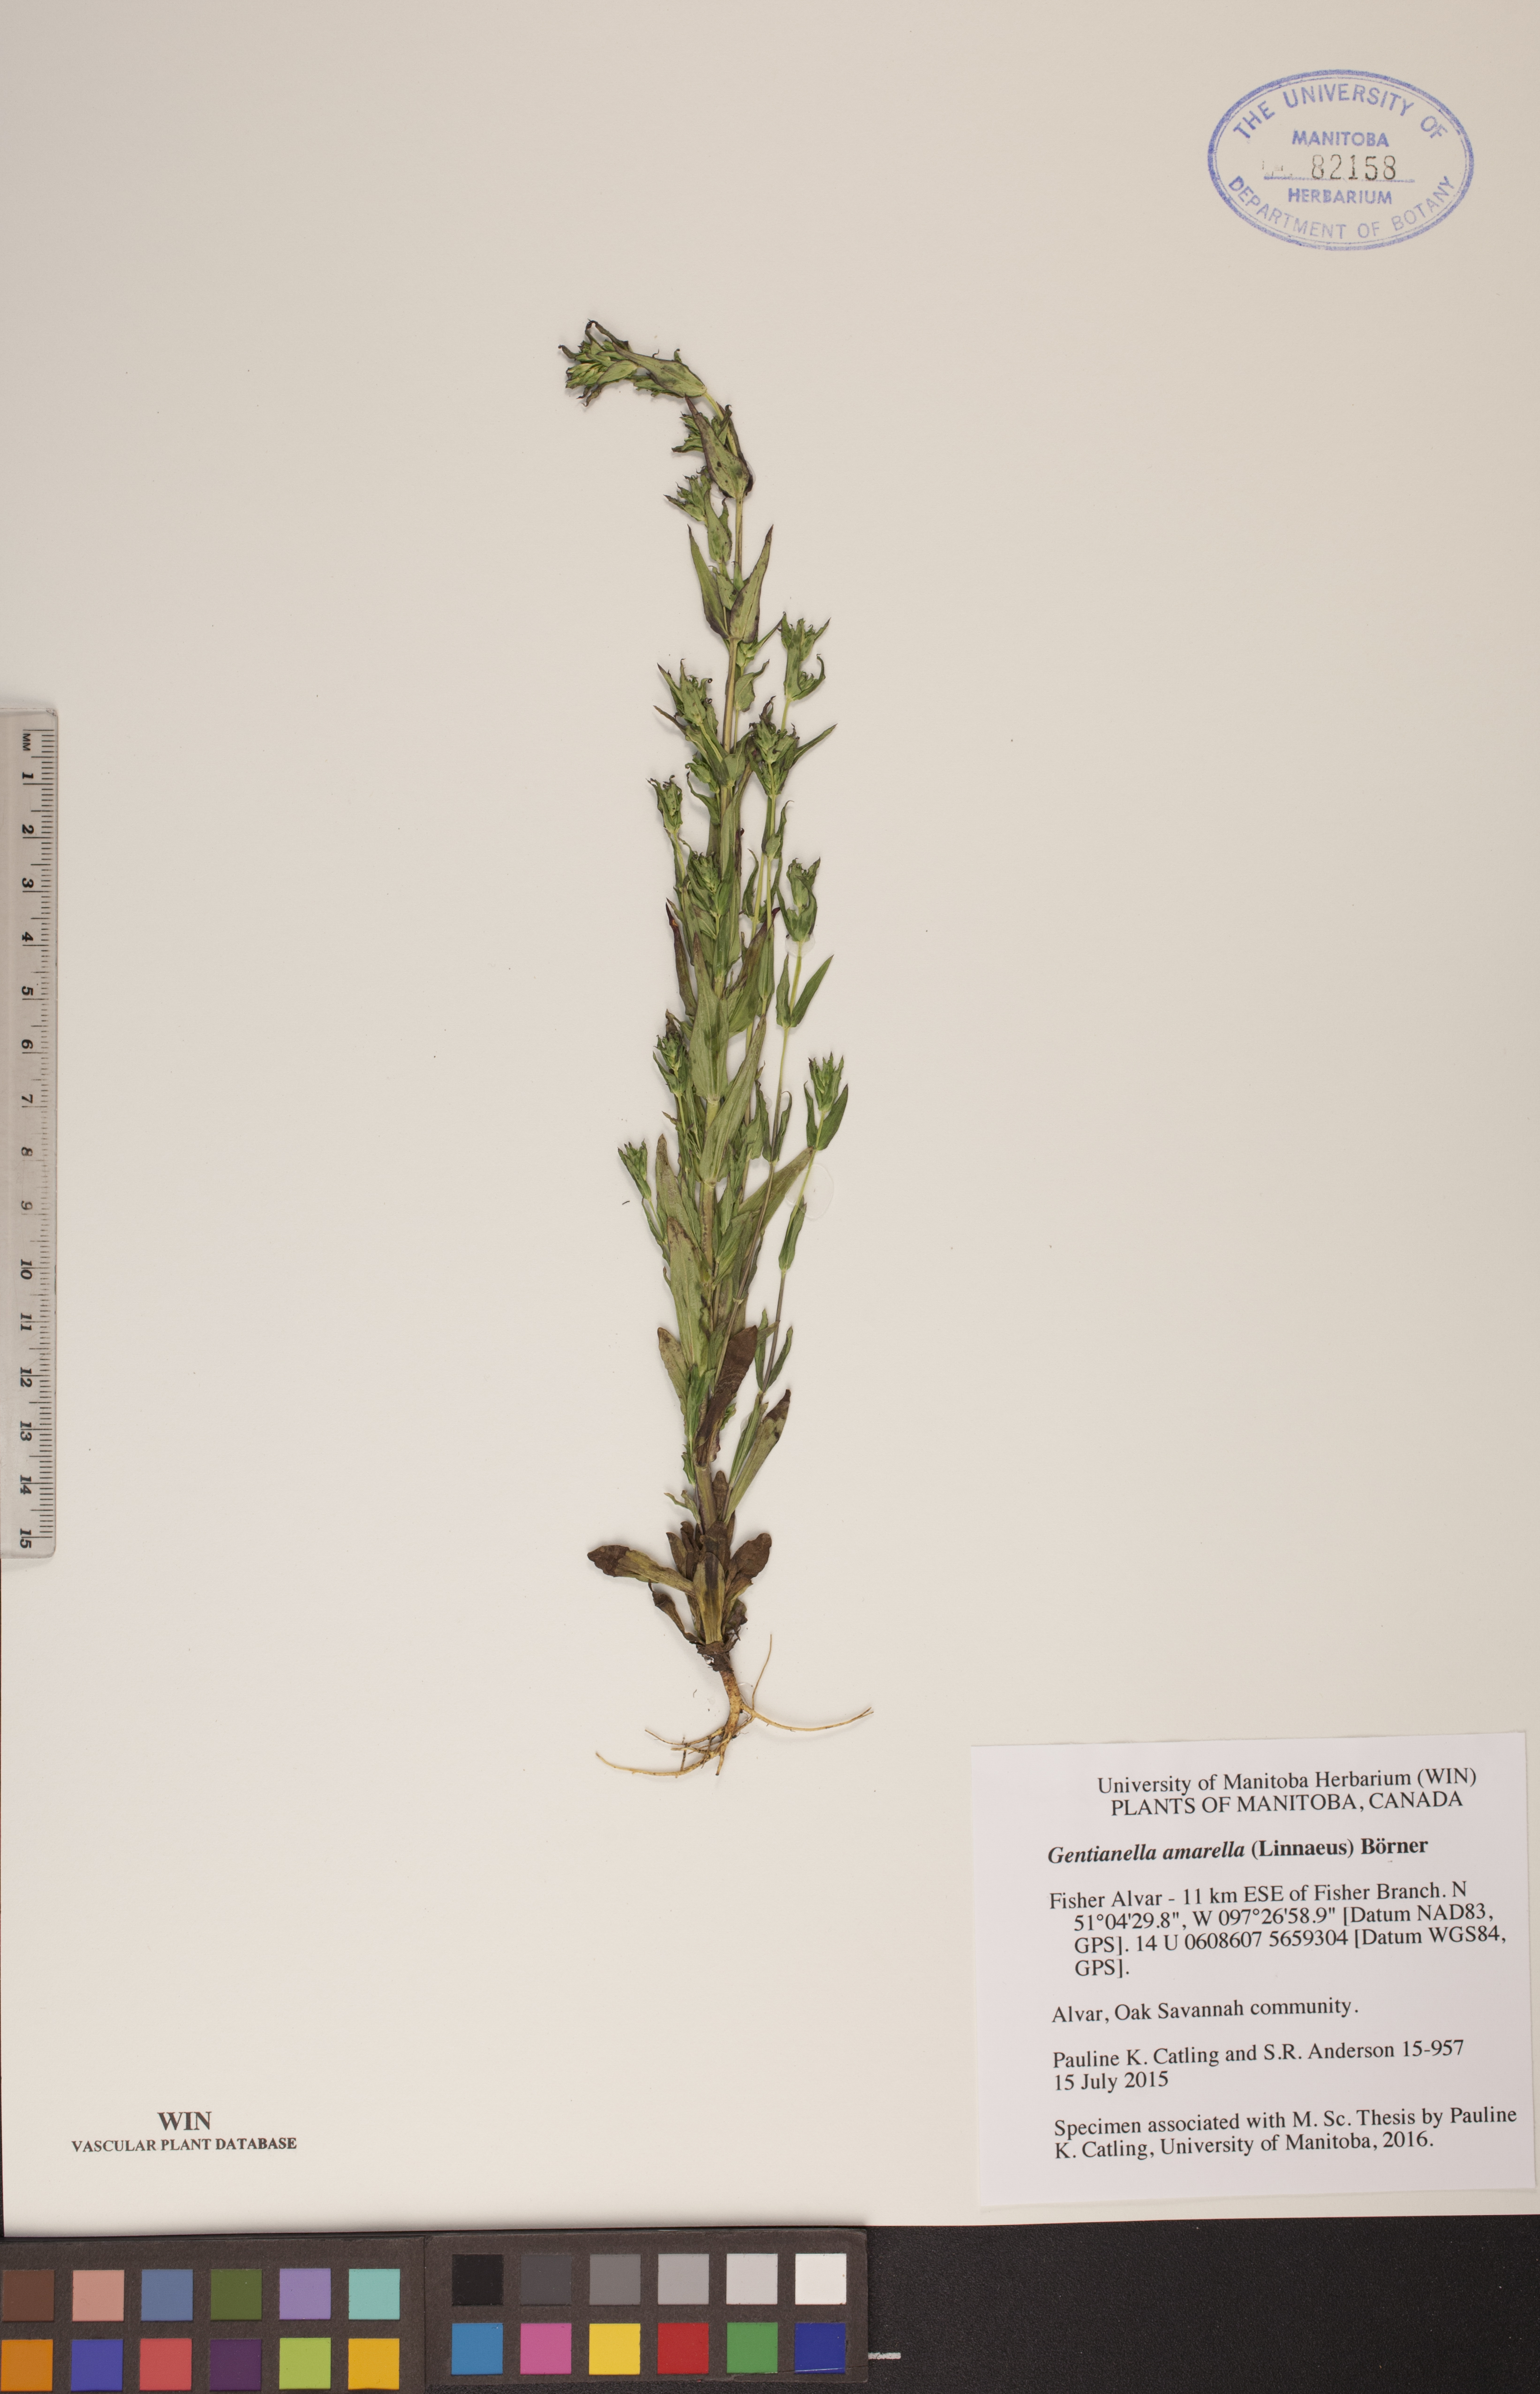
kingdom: Plantae
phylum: Tracheophyta
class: Magnoliopsida
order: Gentianales
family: Gentianaceae
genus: Gentianella
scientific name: Gentianella amarella
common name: Autumn gentian
